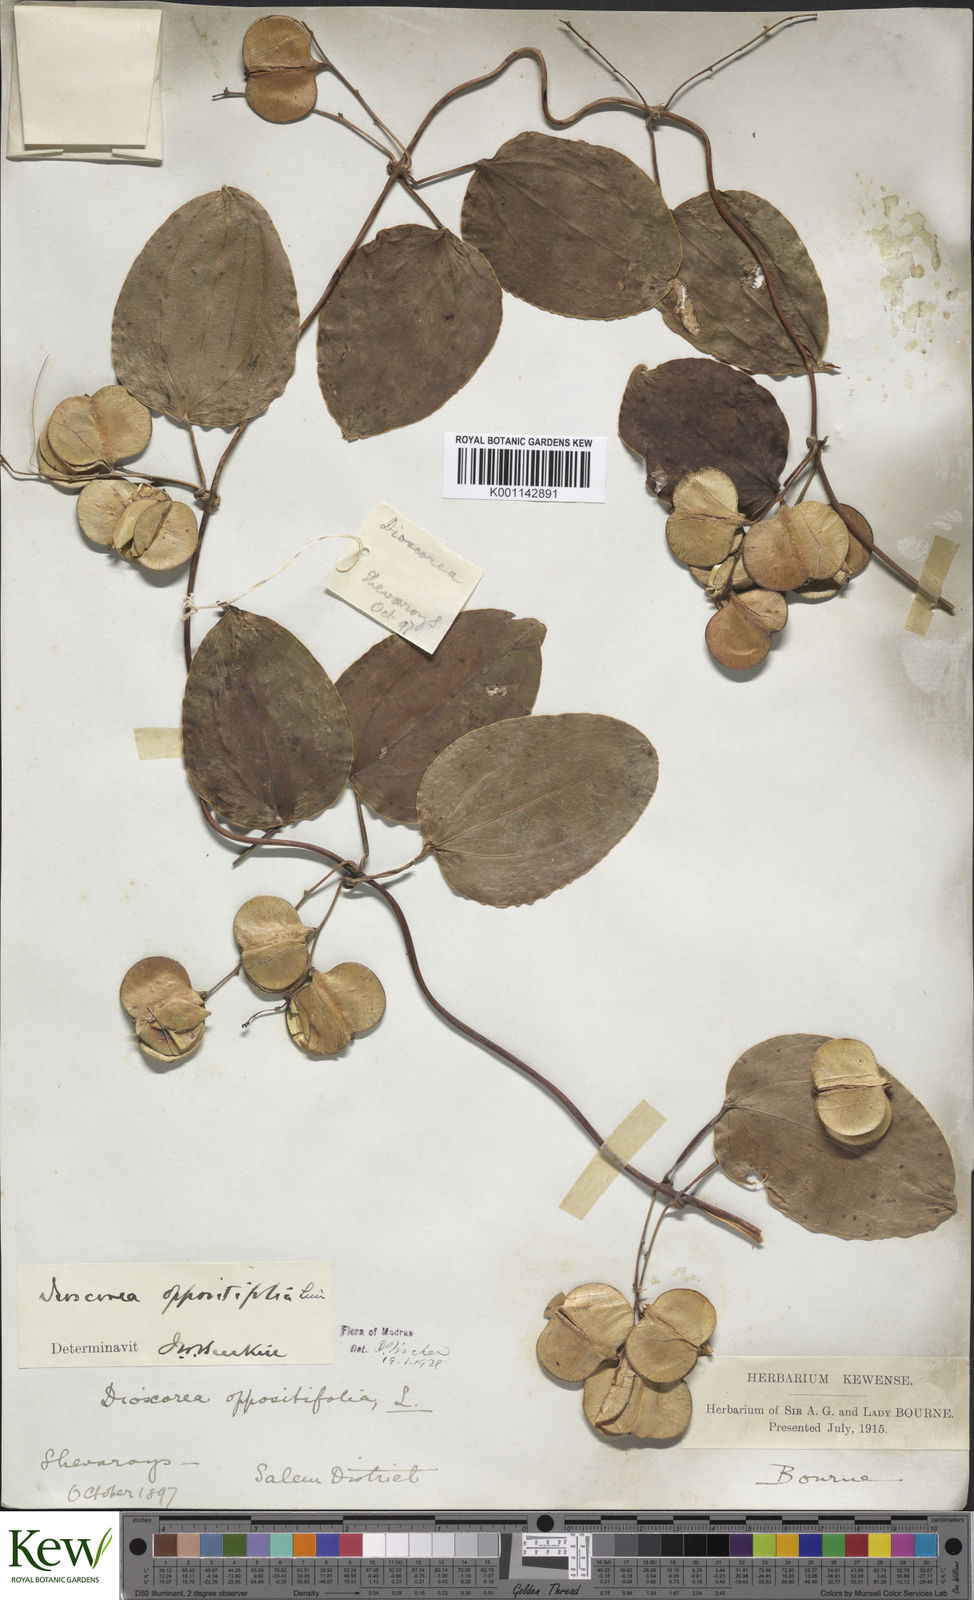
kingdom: Plantae
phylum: Tracheophyta
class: Liliopsida
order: Dioscoreales
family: Dioscoreaceae
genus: Dioscorea
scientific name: Dioscorea oppositifolia
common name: Chinese yam
